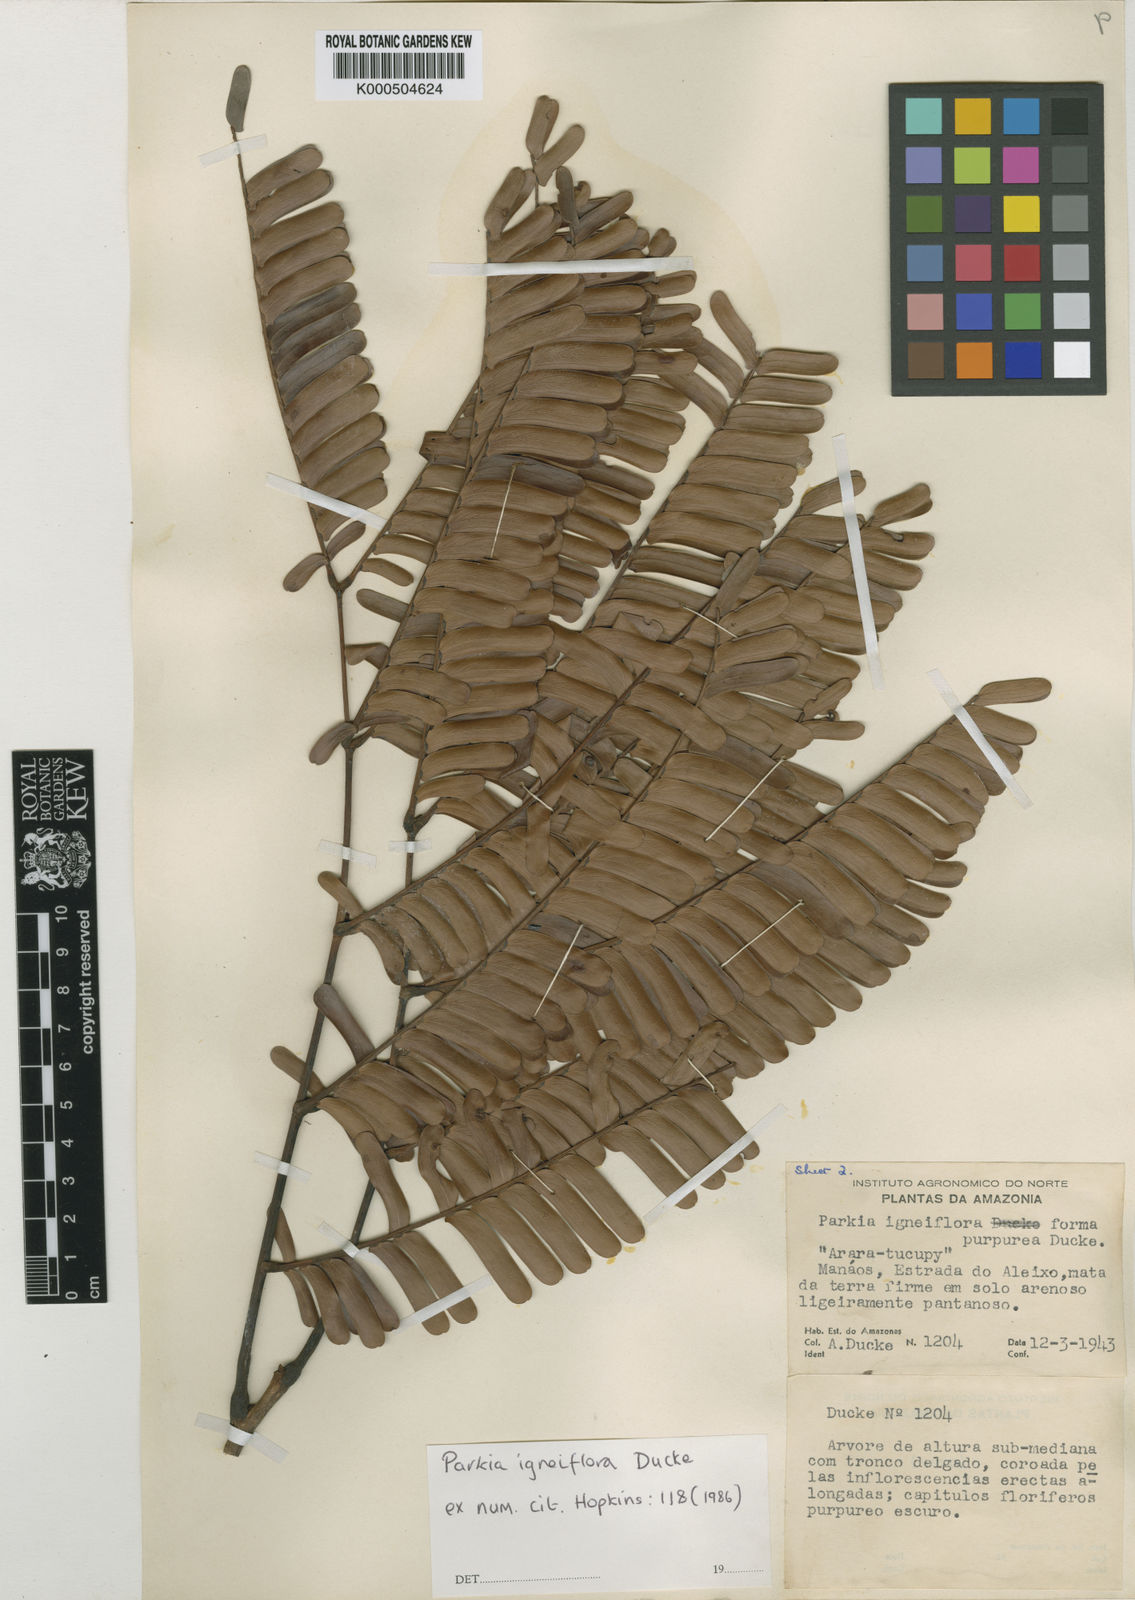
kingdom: Plantae
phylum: Tracheophyta
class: Magnoliopsida
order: Fabales
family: Fabaceae
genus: Parkia
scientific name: Parkia igneiflora
